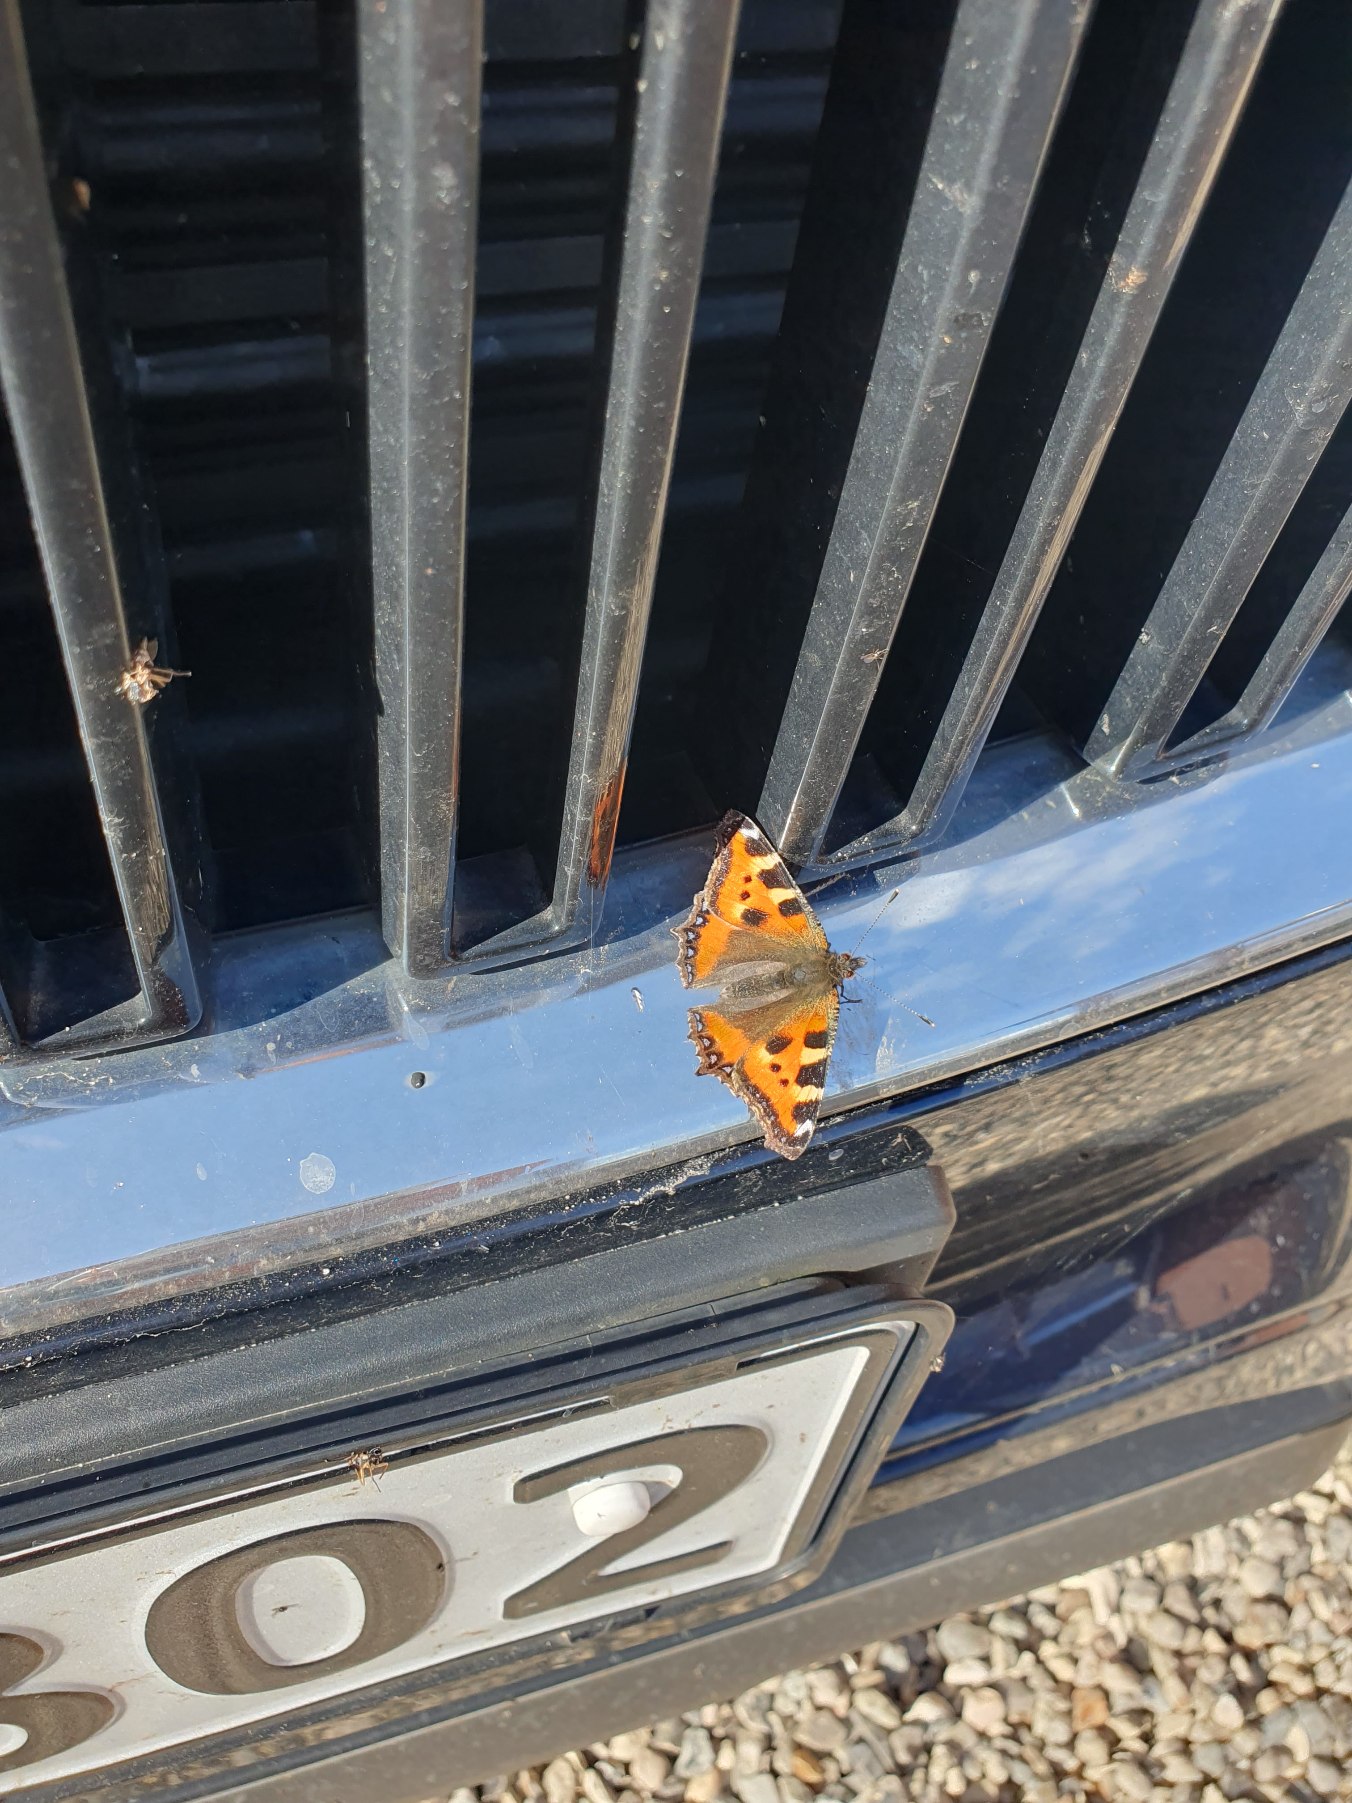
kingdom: Animalia
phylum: Arthropoda
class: Insecta
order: Lepidoptera
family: Nymphalidae
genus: Aglais
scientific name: Aglais urticae
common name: Nældens takvinge
